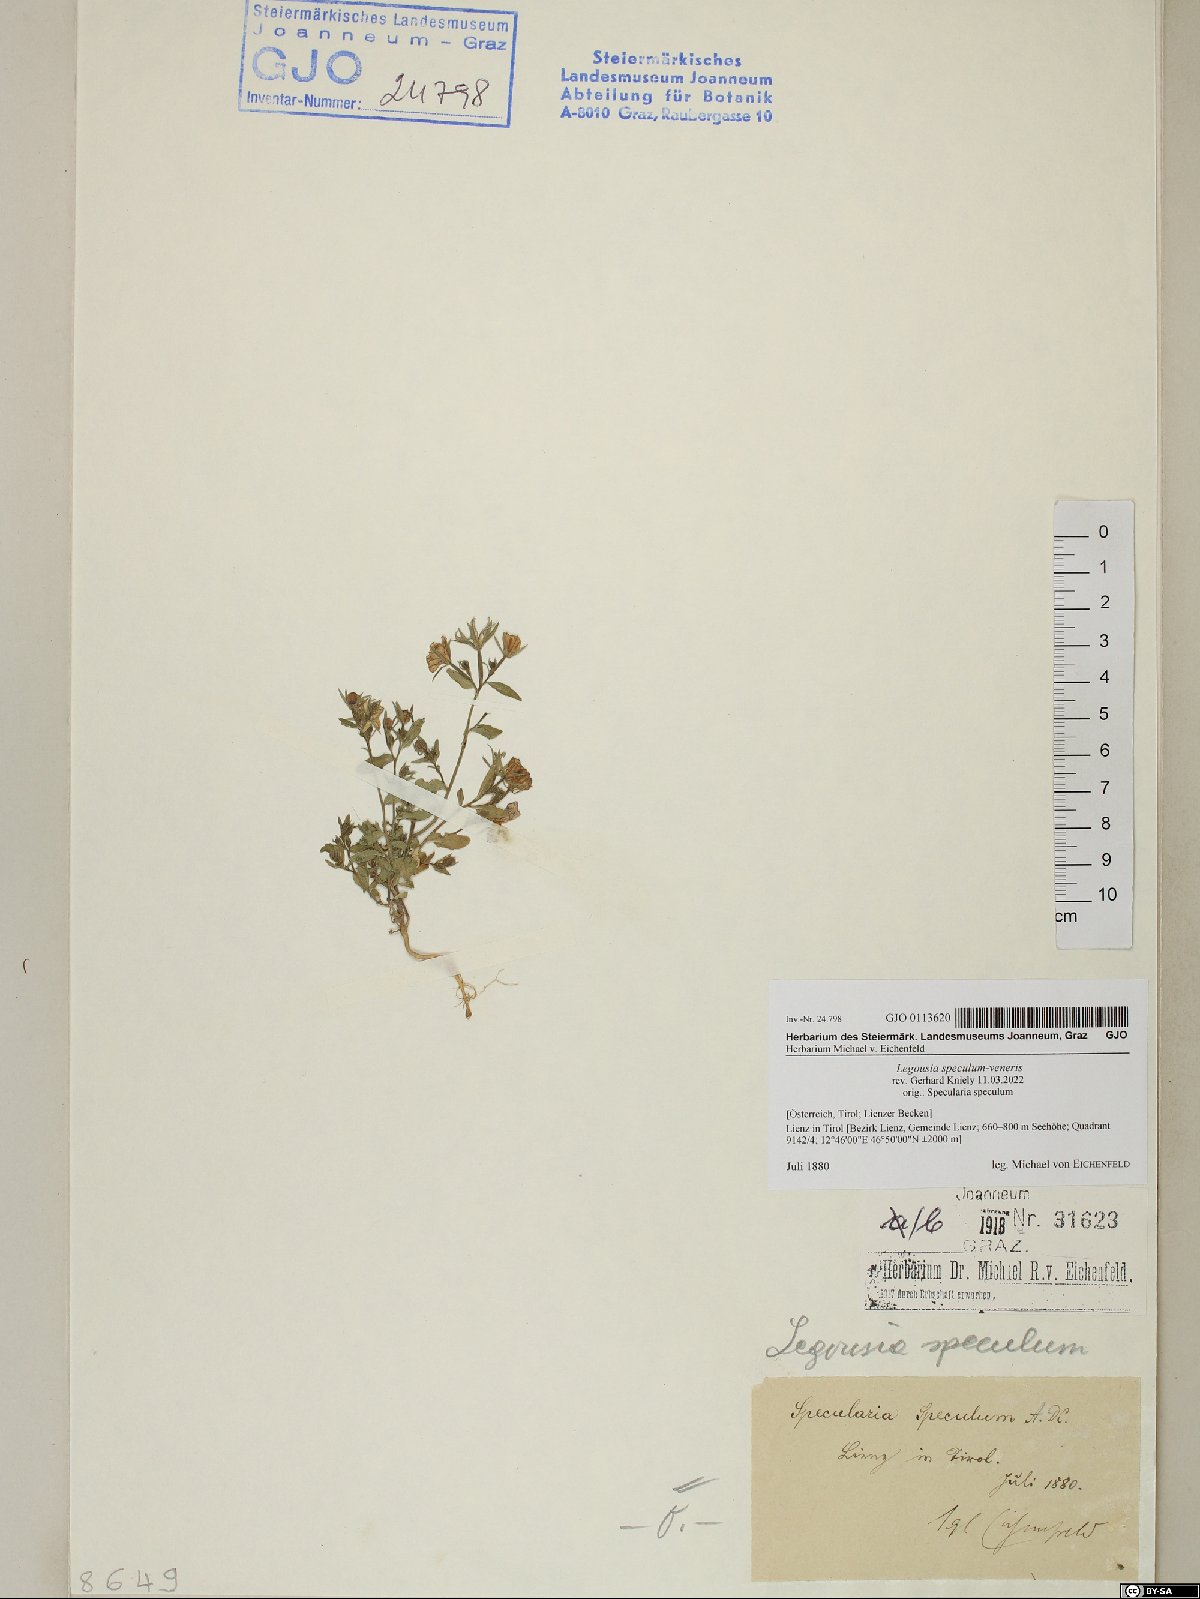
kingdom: Plantae
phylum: Tracheophyta
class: Magnoliopsida
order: Asterales
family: Campanulaceae
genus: Legousia
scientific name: Legousia speculum-veneris
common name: Large venus's-looking-glass
